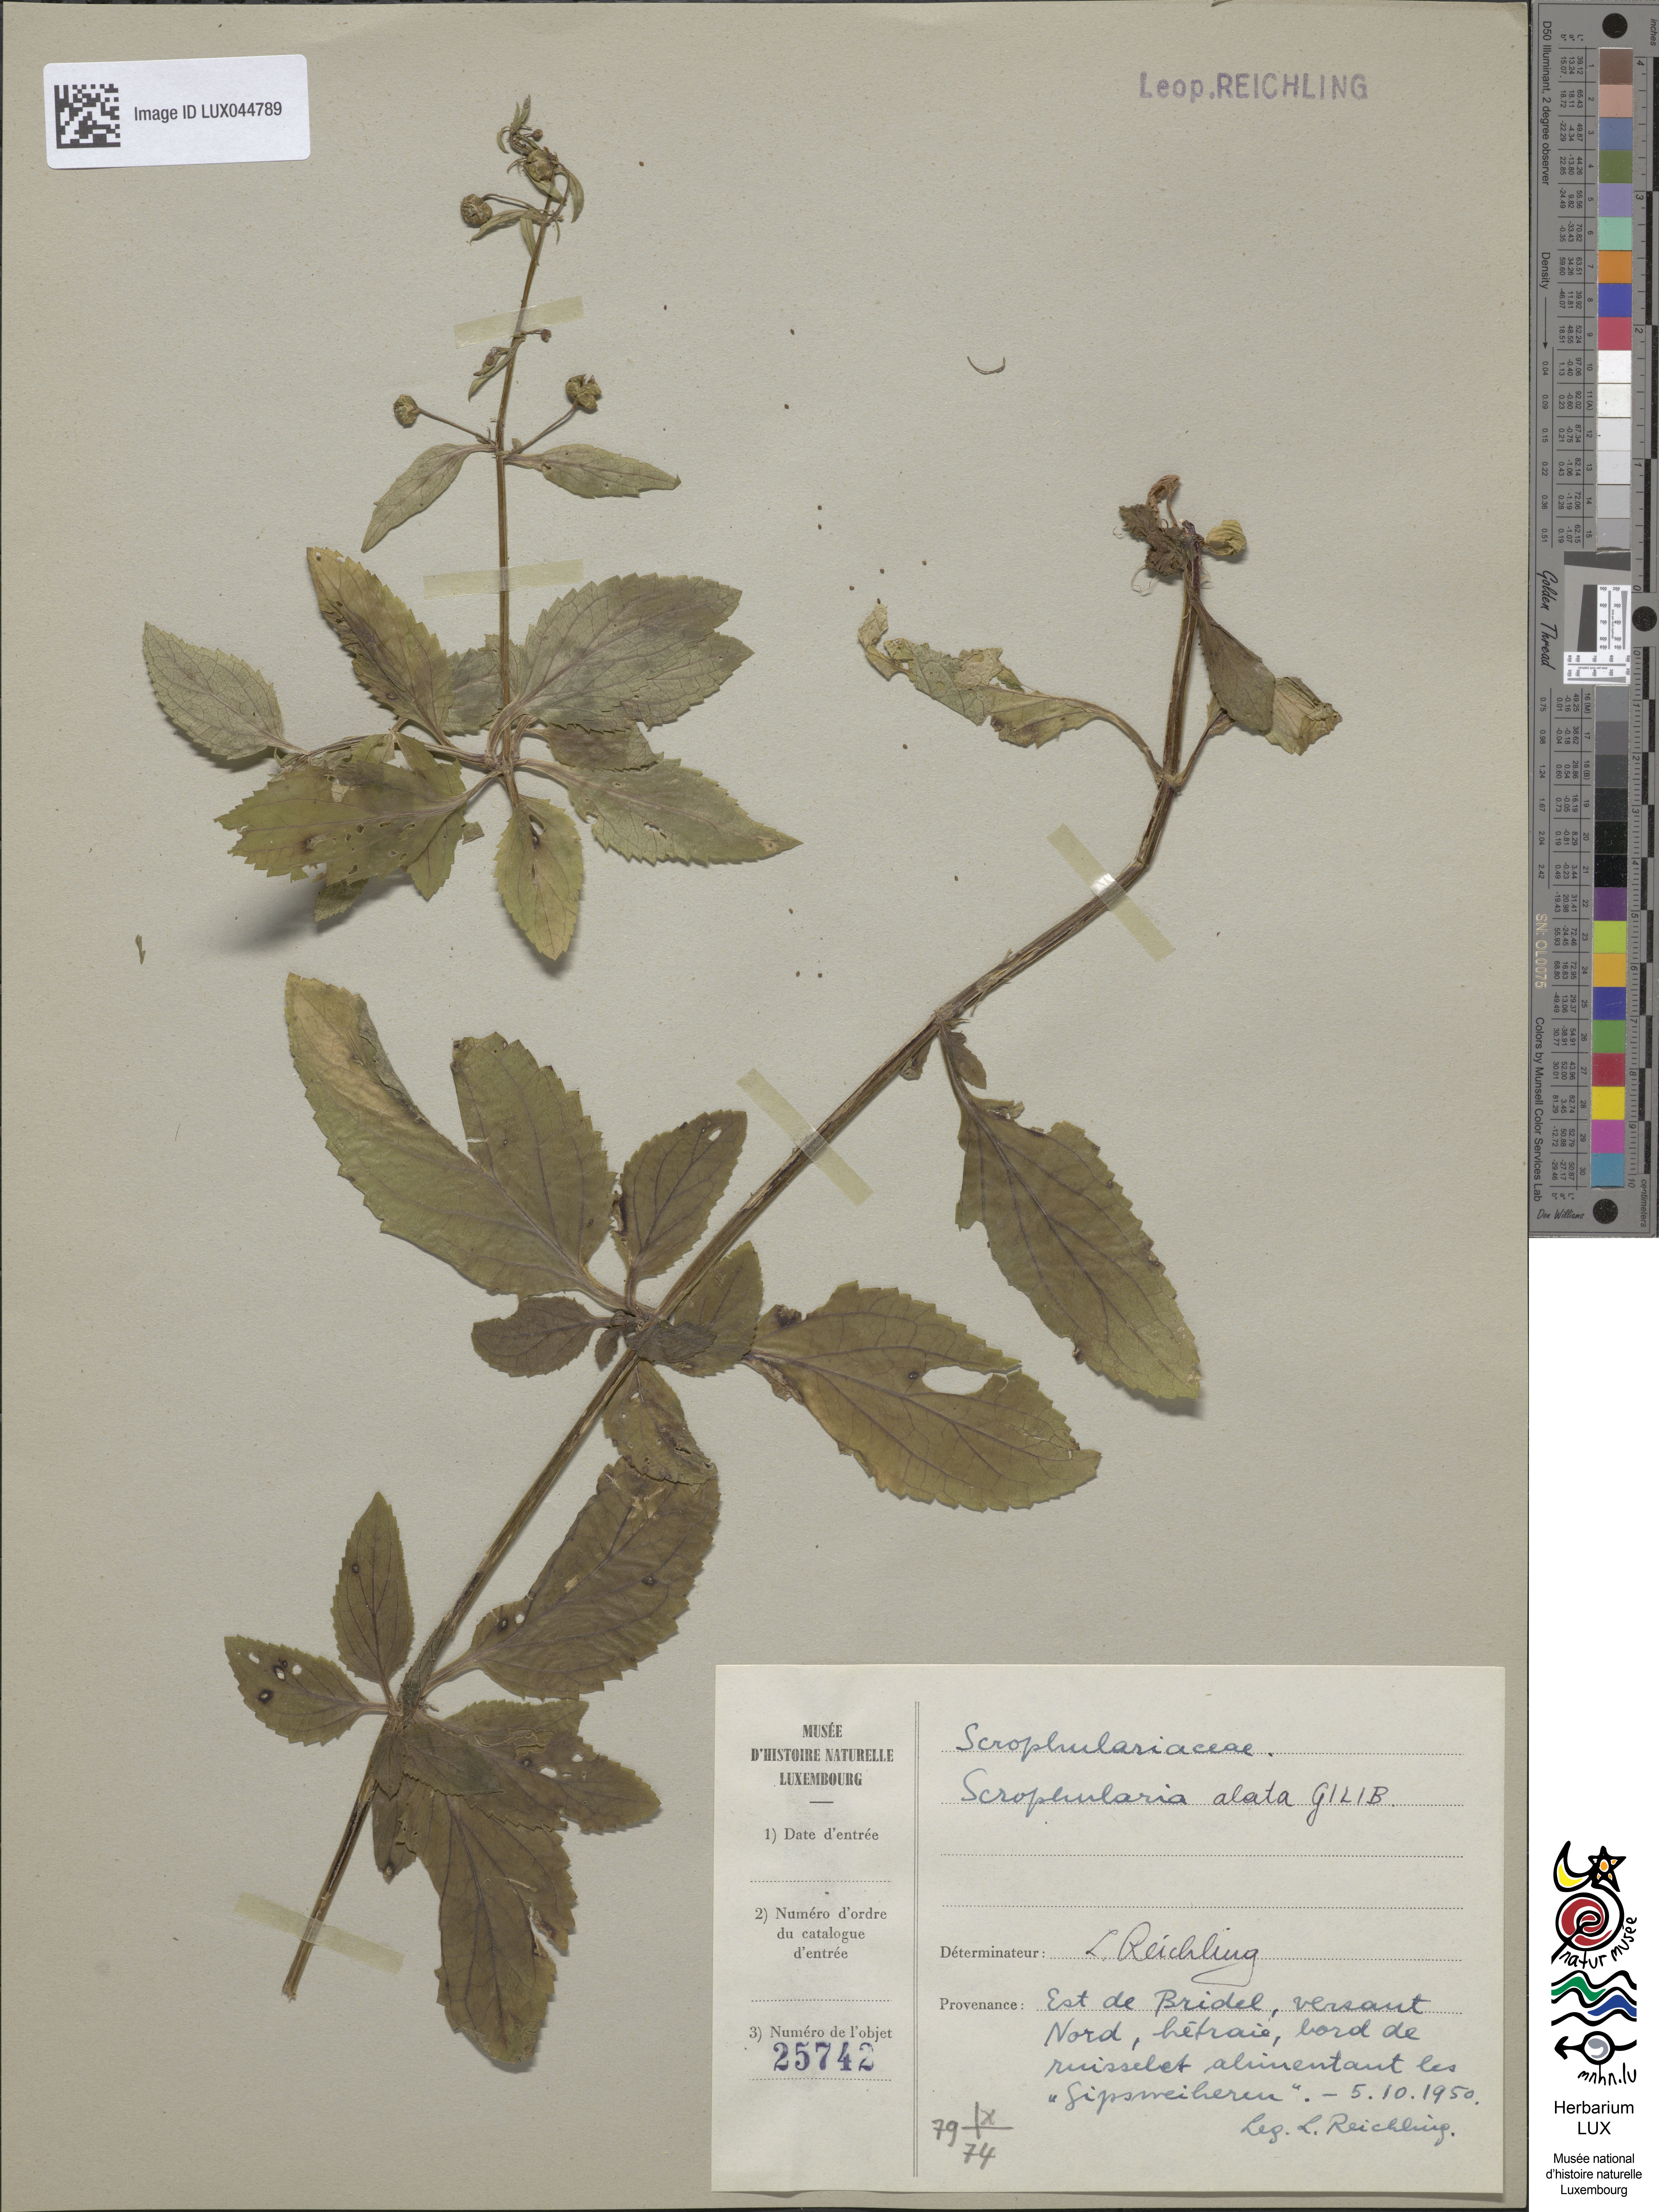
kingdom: Plantae
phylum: Tracheophyta
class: Magnoliopsida
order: Lamiales
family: Scrophulariaceae
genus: Scrophularia
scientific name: Scrophularia umbrosa
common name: Green figwort
